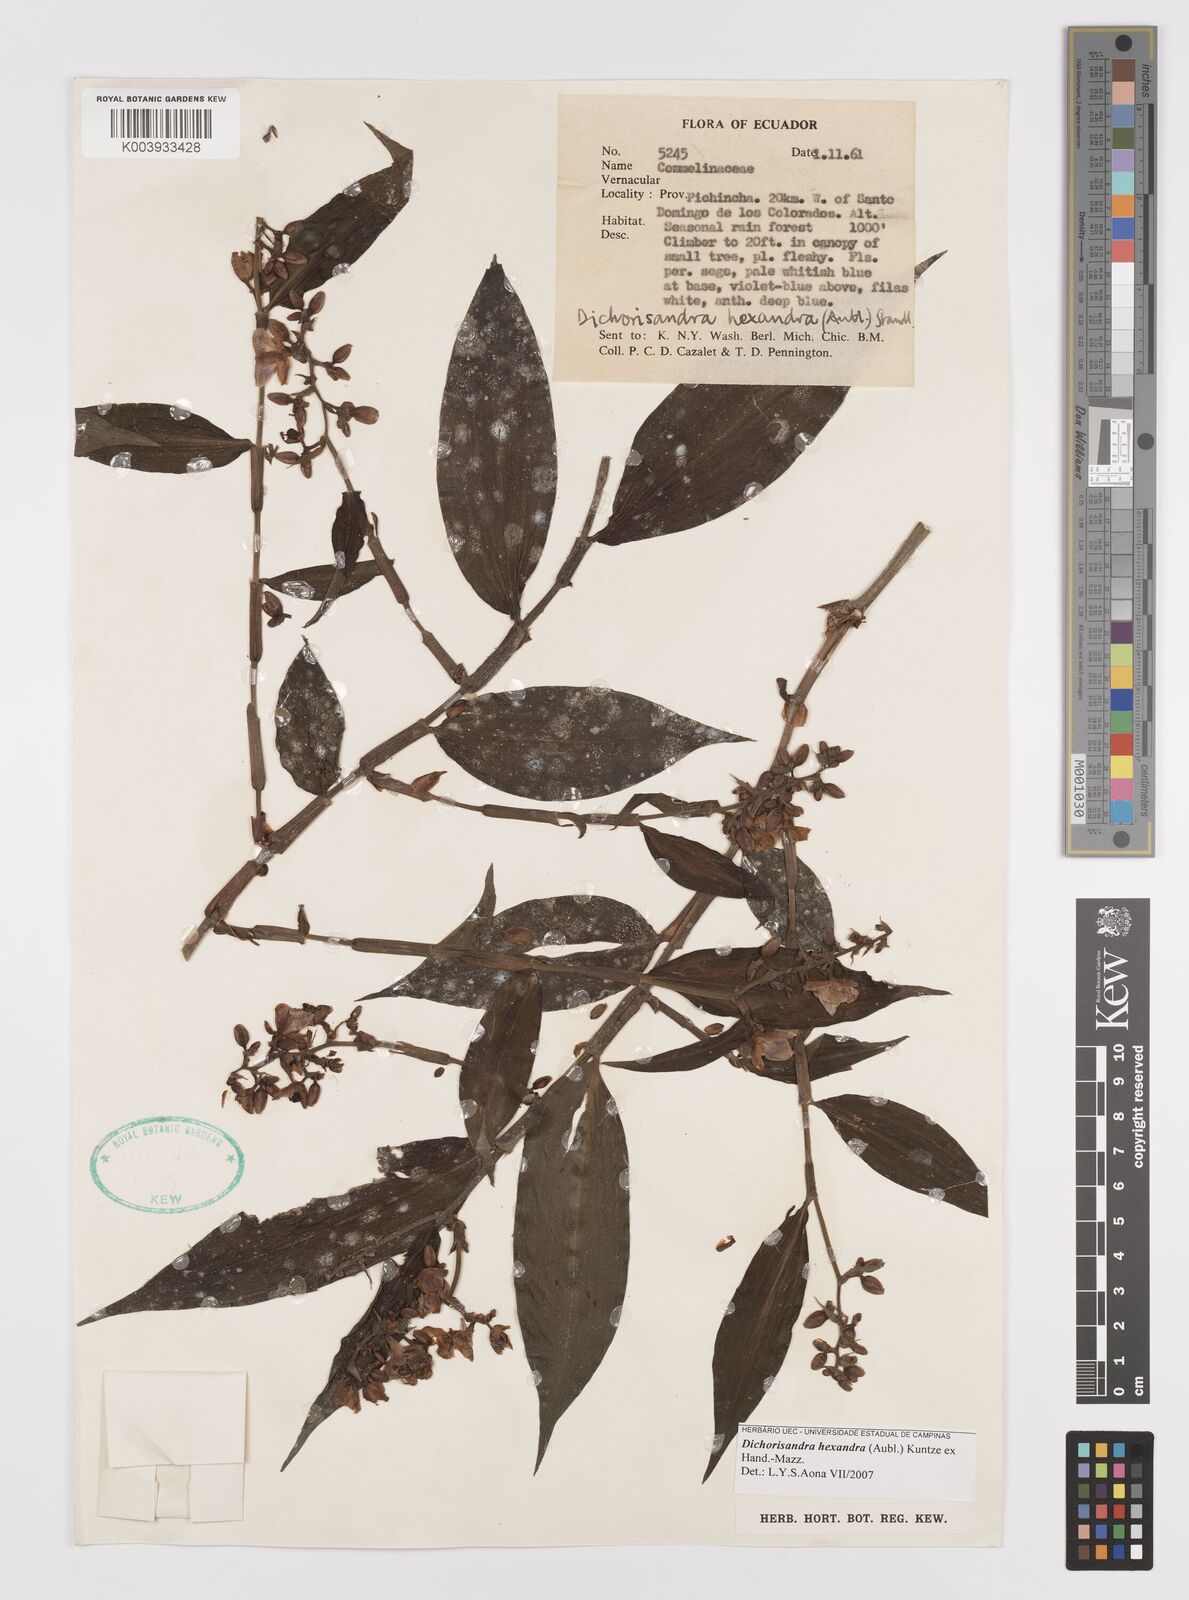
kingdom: Plantae
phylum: Tracheophyta
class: Liliopsida
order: Commelinales
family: Commelinaceae
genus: Dichorisandra
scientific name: Dichorisandra hexandra
